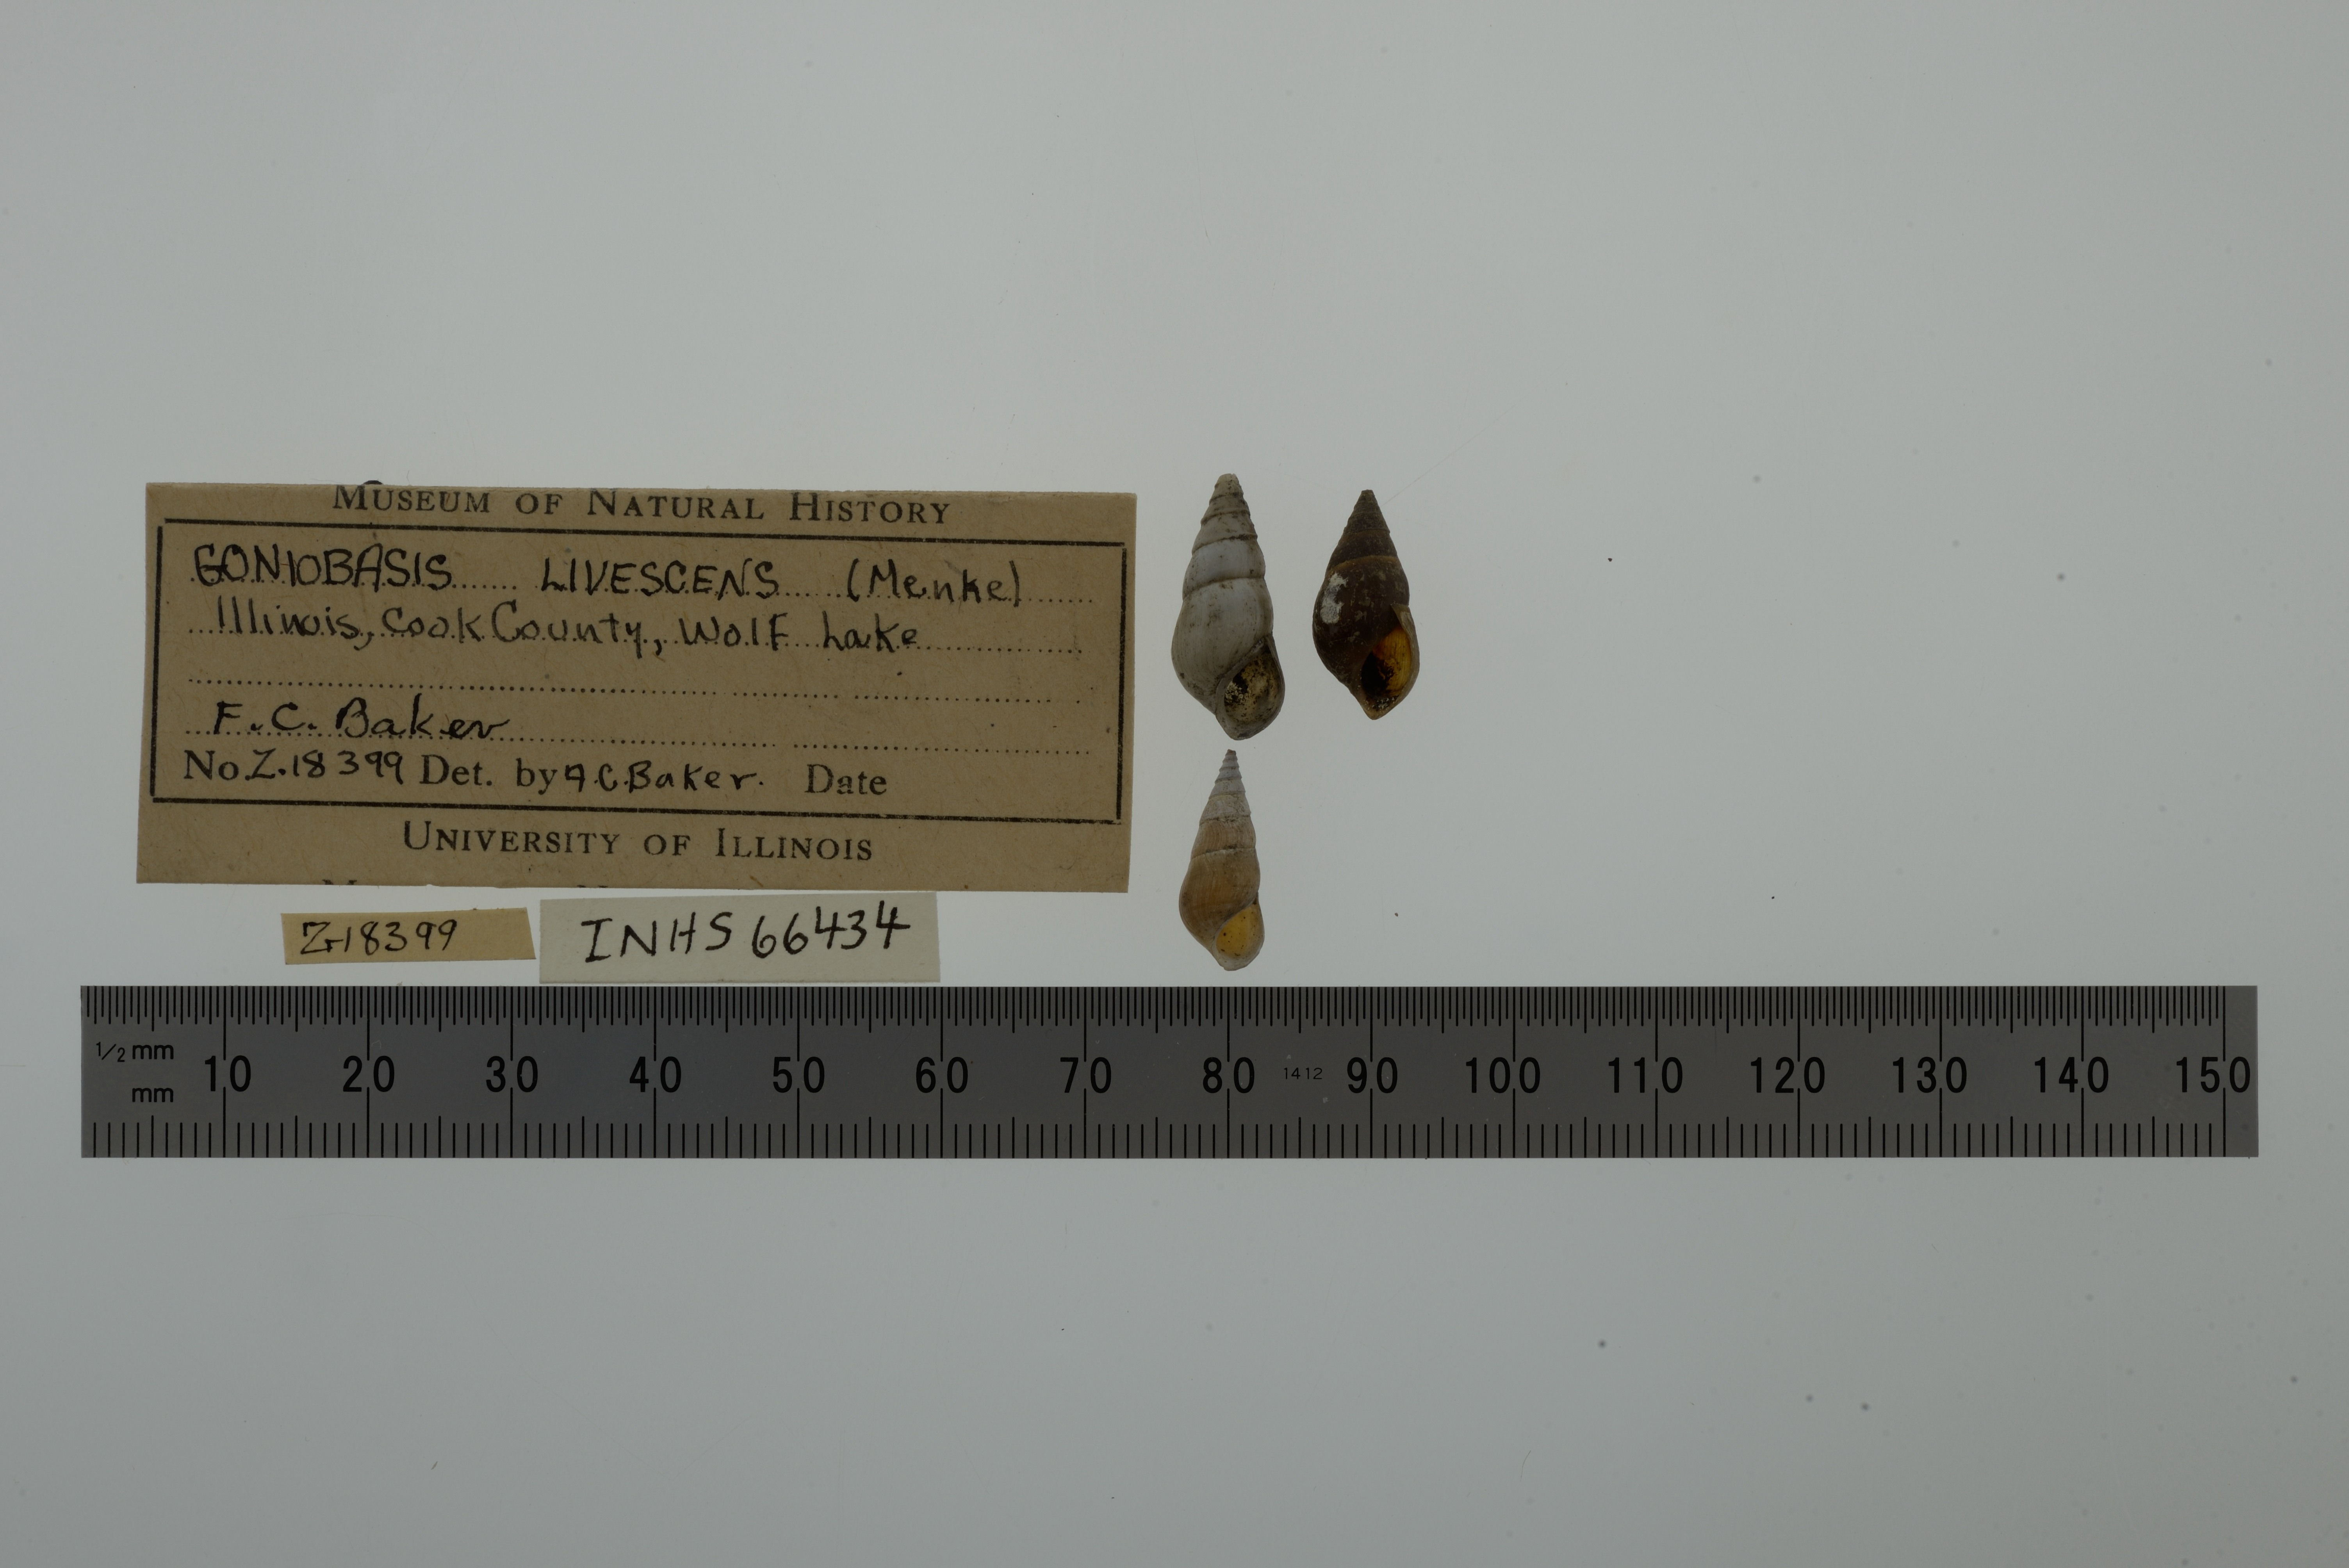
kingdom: Animalia
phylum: Mollusca
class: Gastropoda
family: Pleuroceridae
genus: Elimia
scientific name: Elimia livescens
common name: Liver elimia
